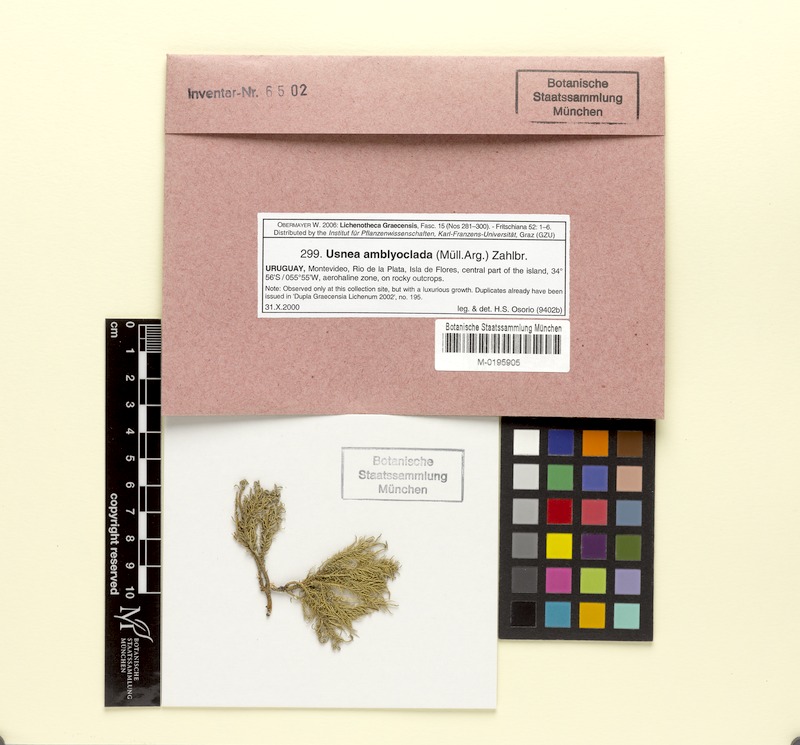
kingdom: Fungi
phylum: Ascomycota
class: Lecanoromycetes
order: Lecanorales
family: Parmeliaceae
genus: Usnea
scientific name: Usnea amblyoclada
